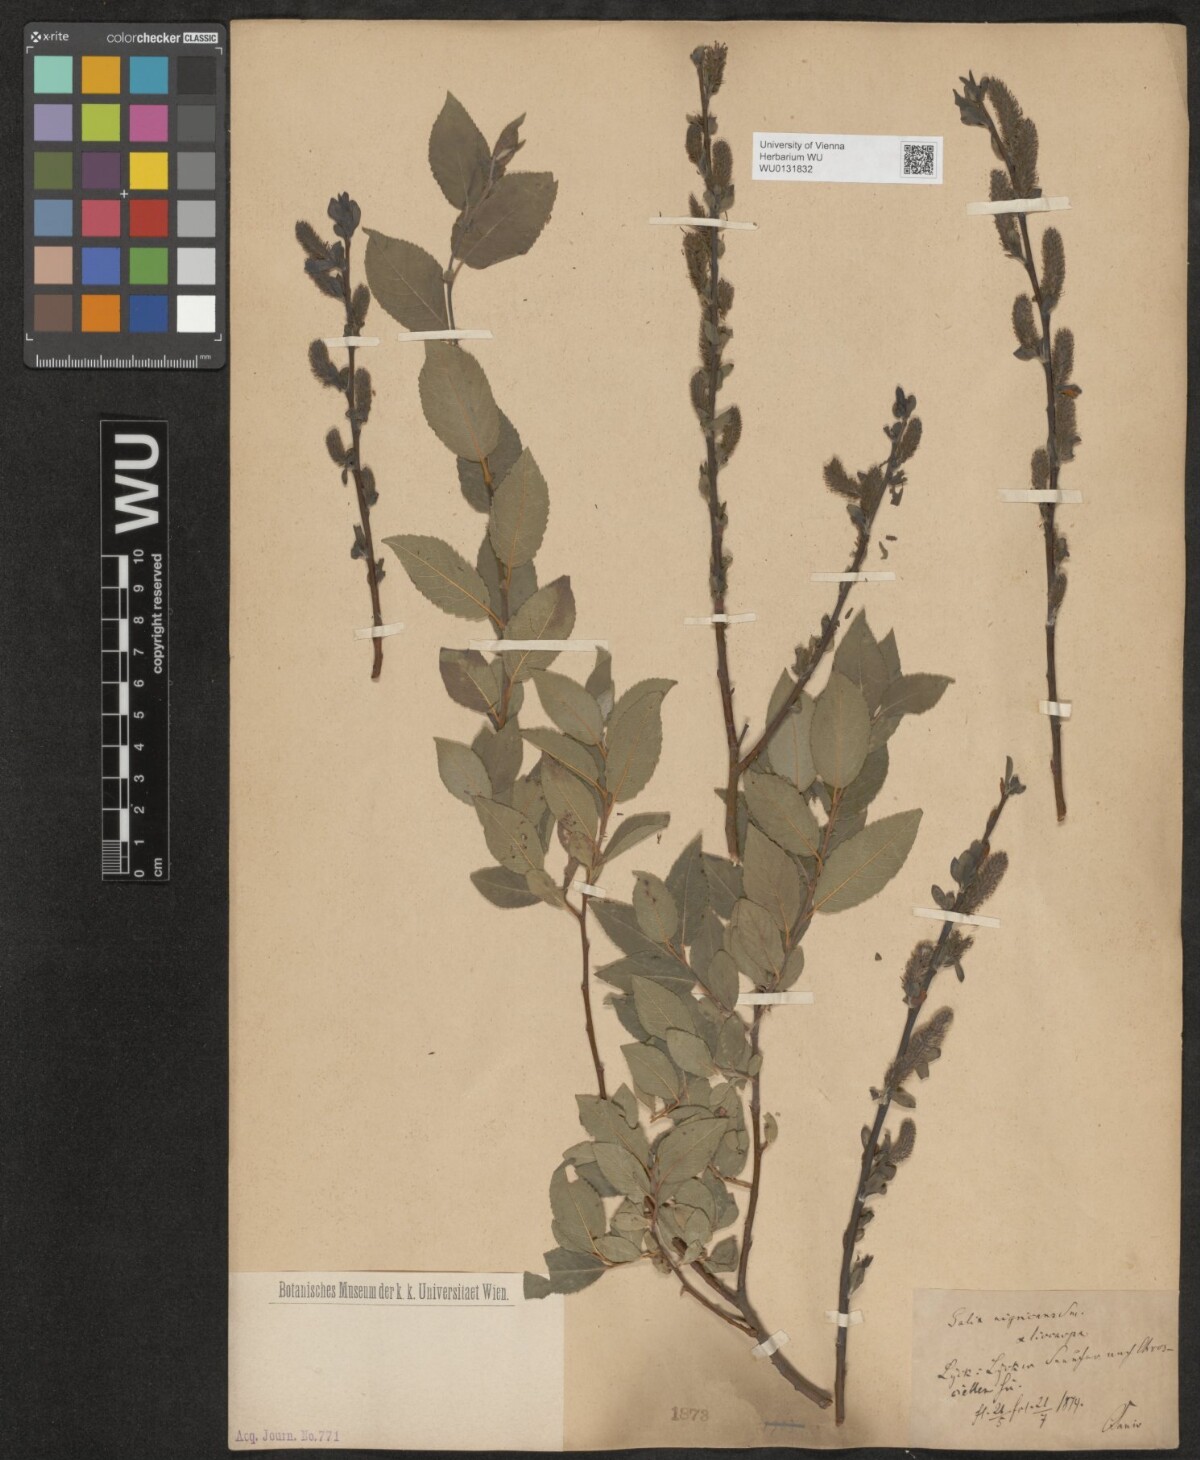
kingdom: Plantae
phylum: Tracheophyta
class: Magnoliopsida
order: Malpighiales
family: Salicaceae
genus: Salix
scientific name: Salix myrsinifolia
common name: Dark-leaved willow
